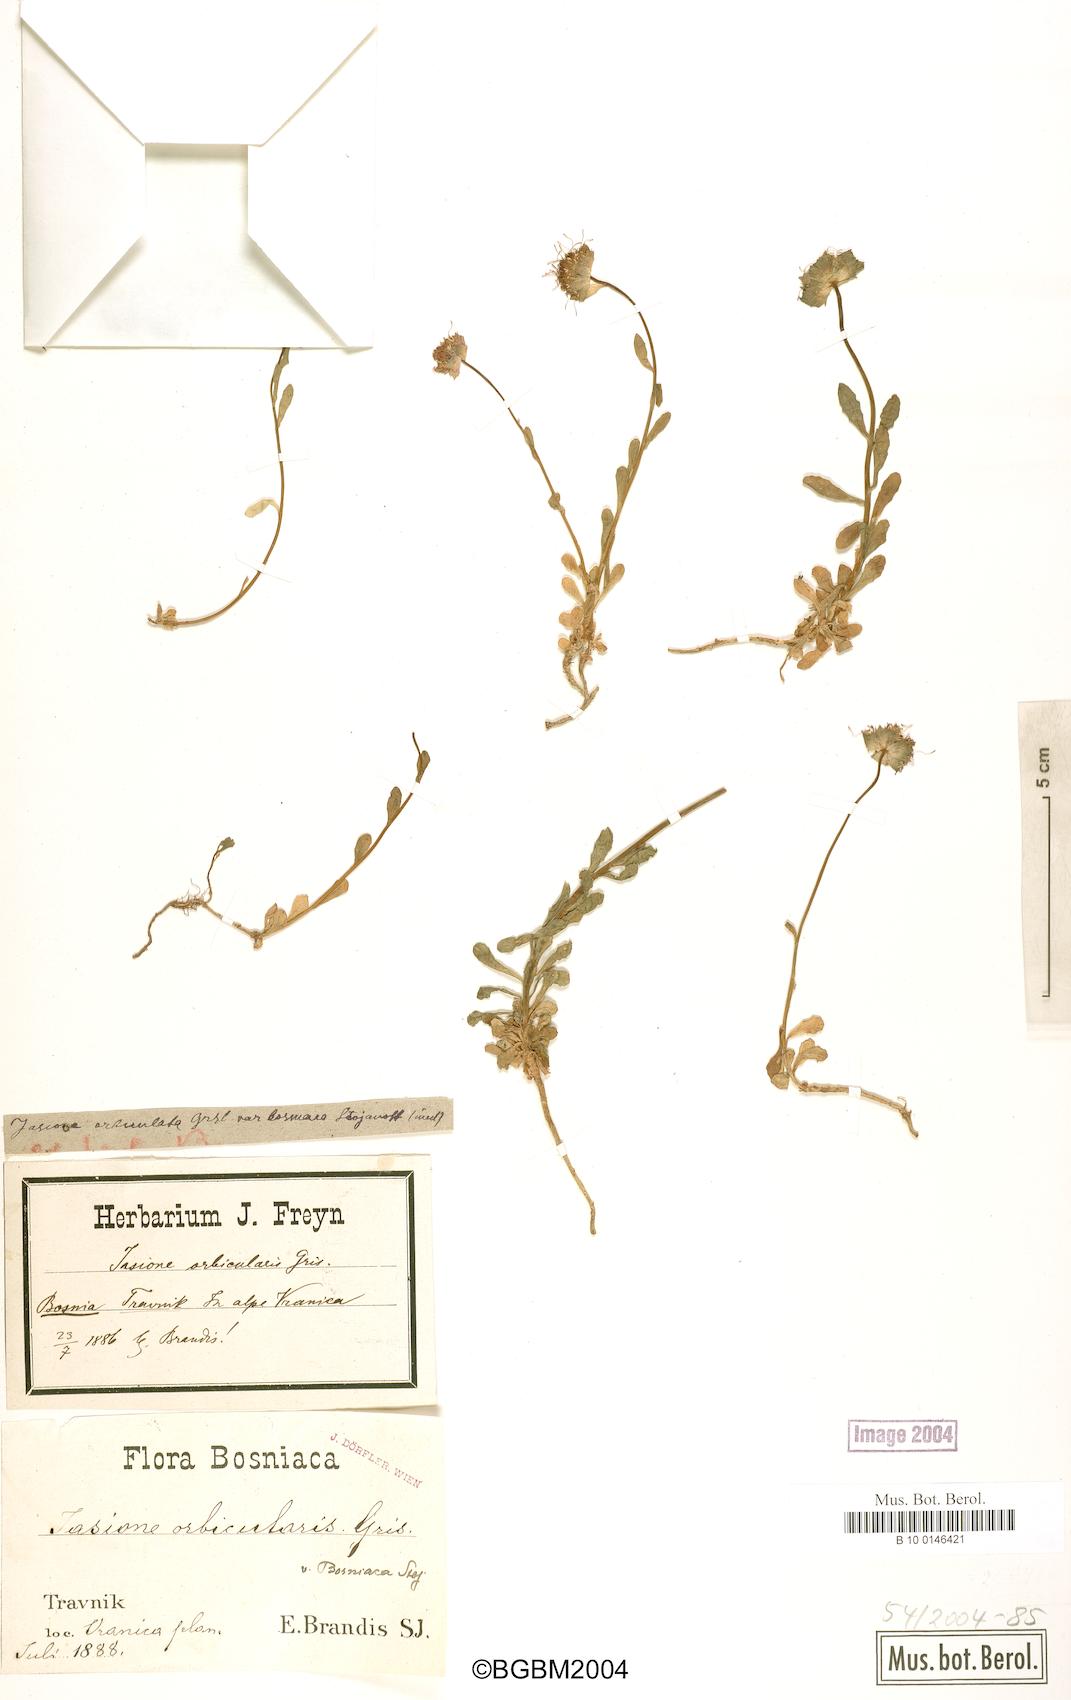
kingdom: Plantae
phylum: Tracheophyta
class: Magnoliopsida
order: Asterales
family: Campanulaceae
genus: Jasione
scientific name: Jasione orbiculata
